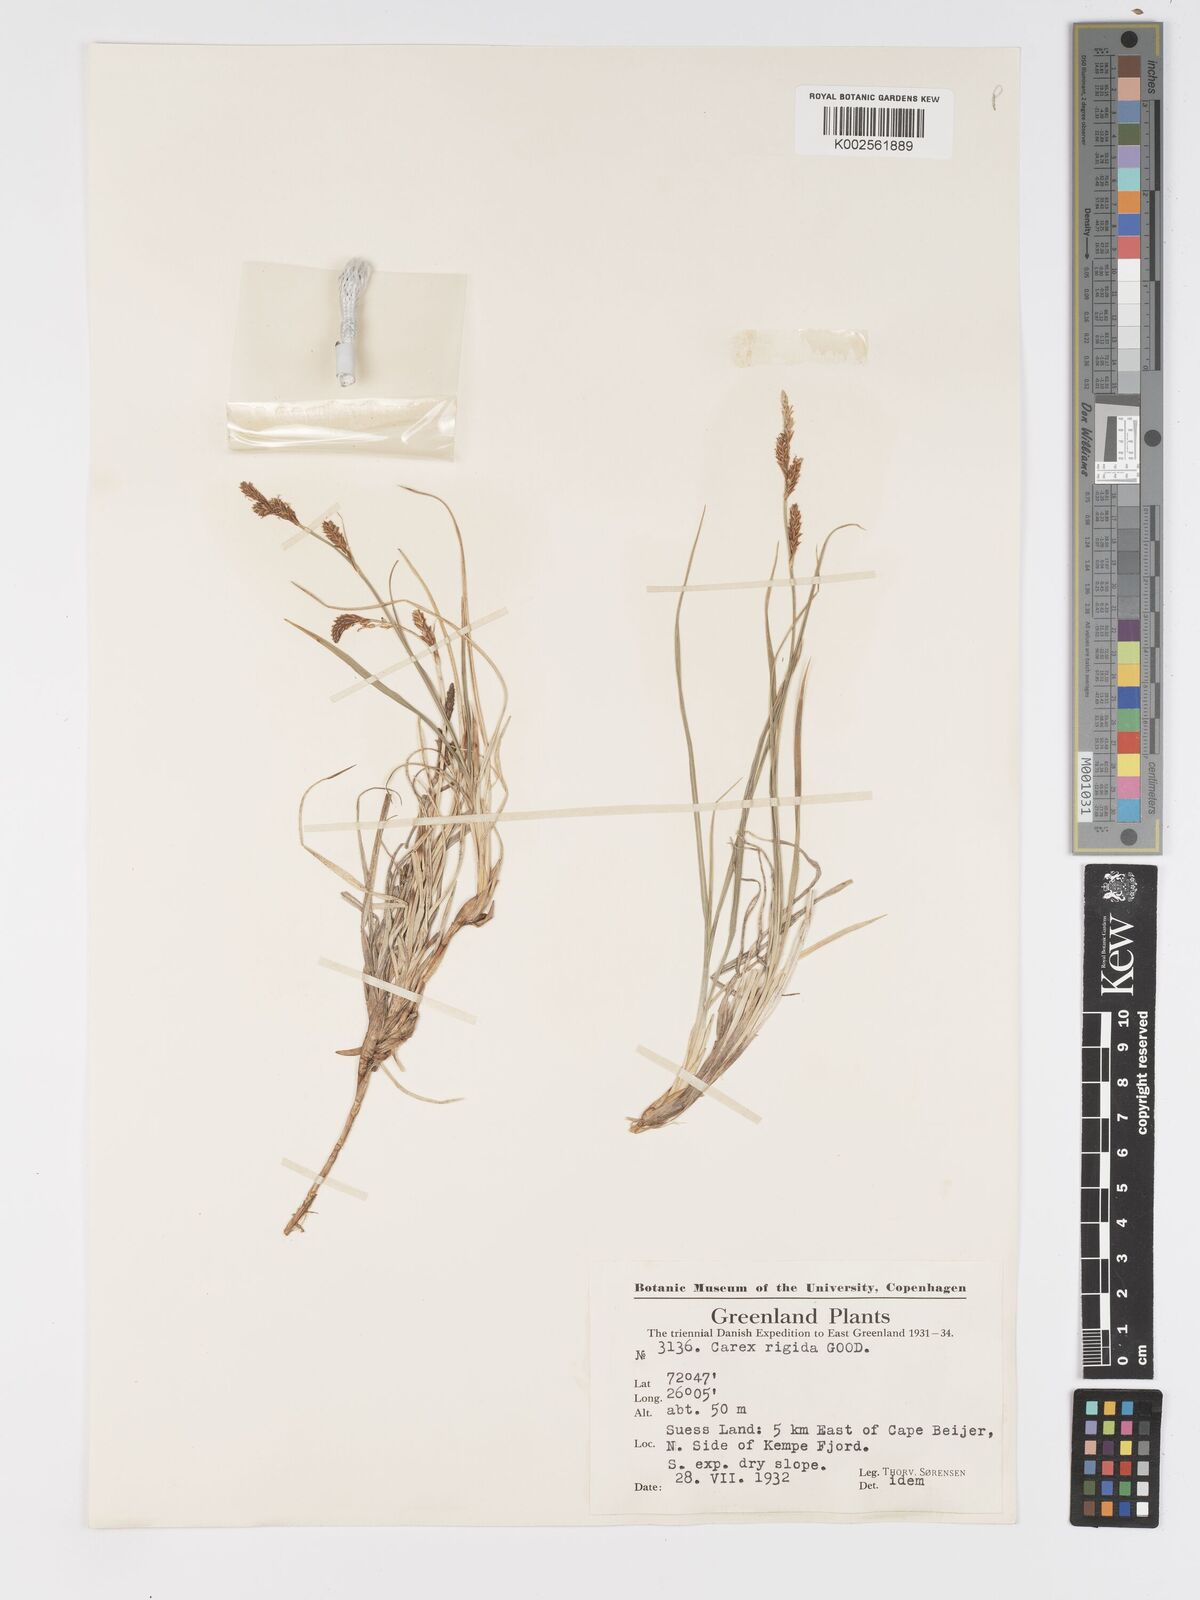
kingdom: Plantae
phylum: Tracheophyta
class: Liliopsida
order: Poales
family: Cyperaceae
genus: Carex
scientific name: Carex bigelowii
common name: Stiff sedge
